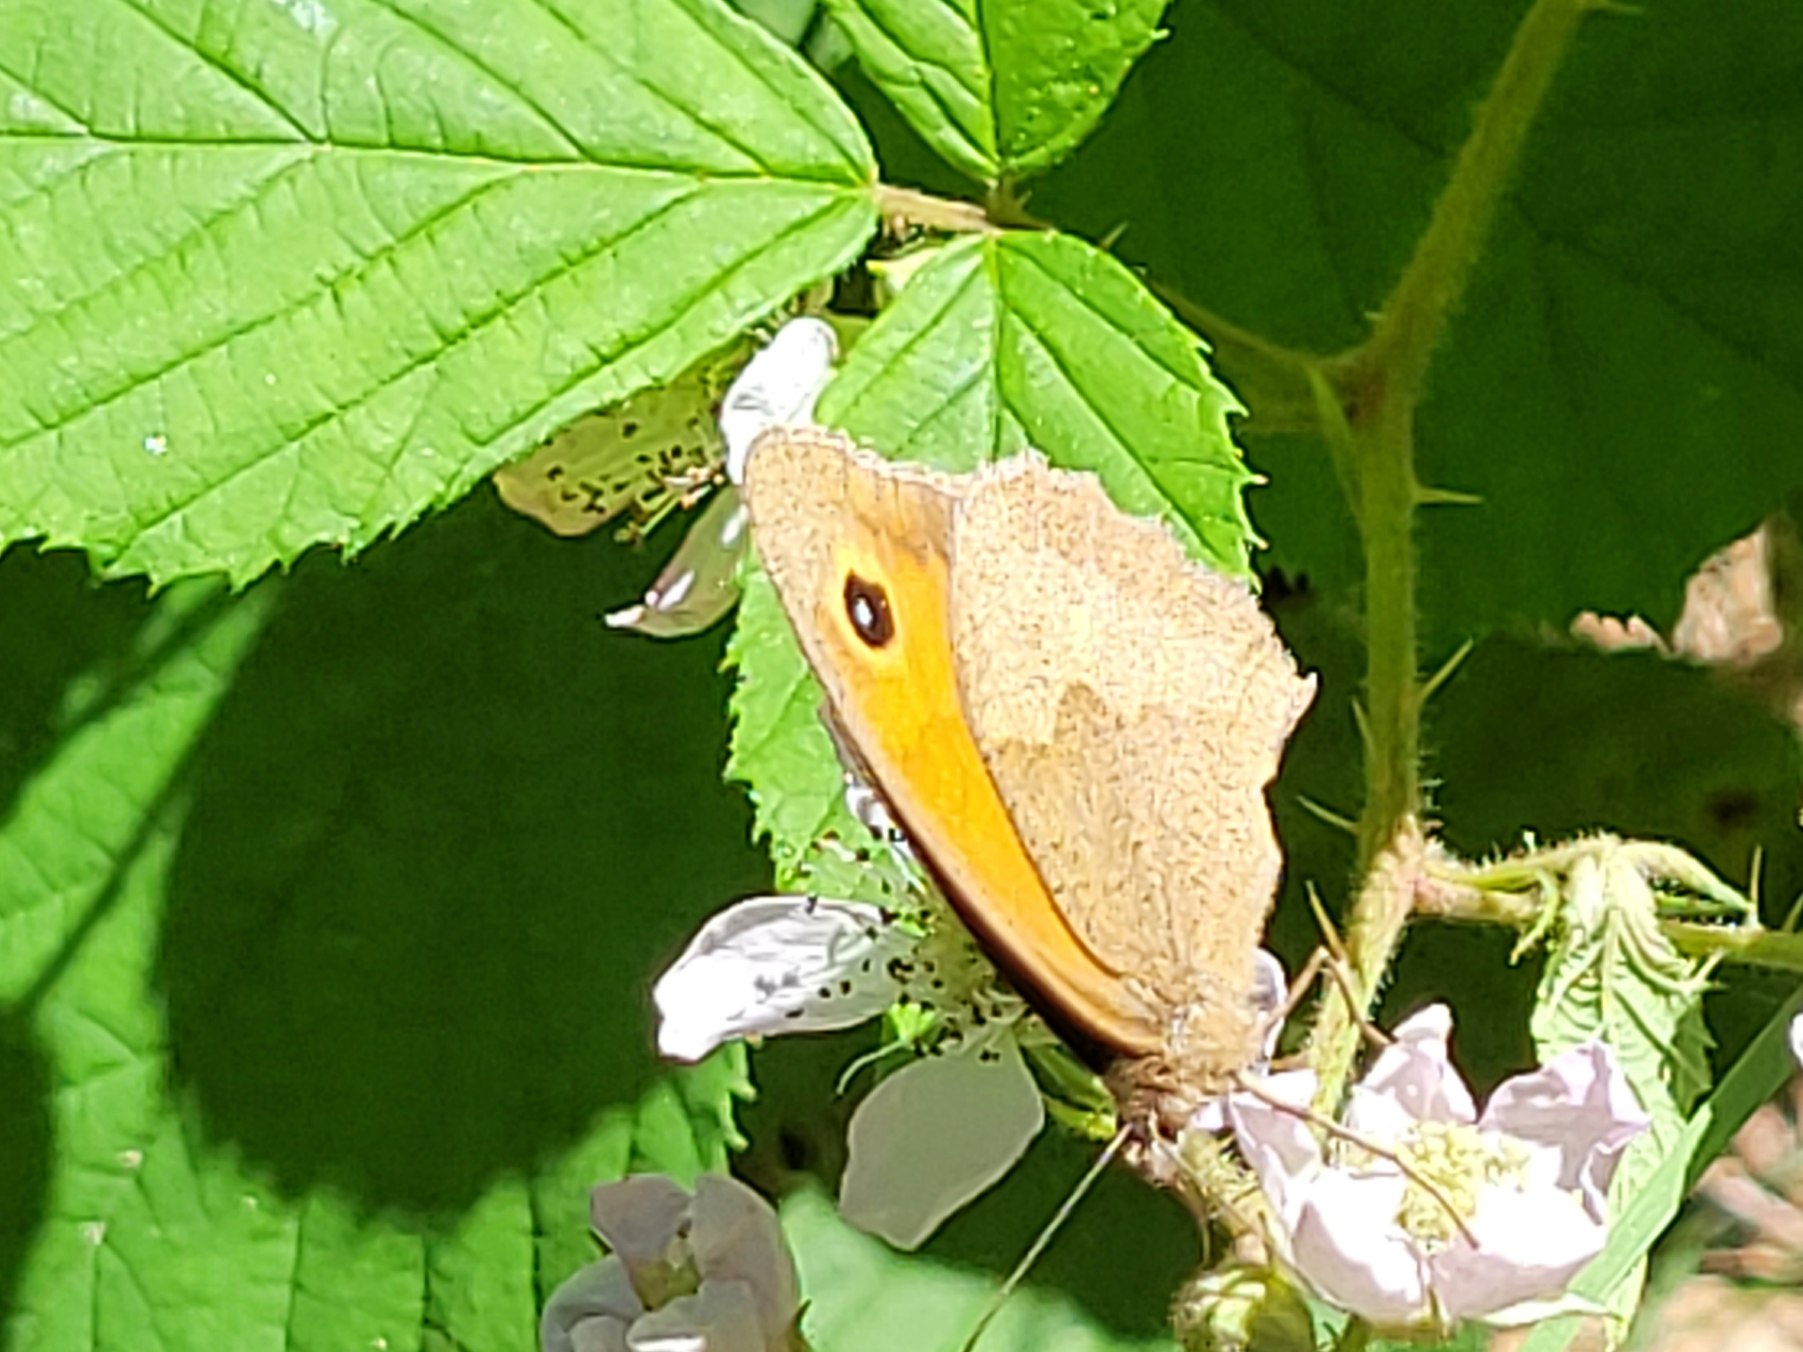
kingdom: Animalia
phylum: Arthropoda
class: Insecta
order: Lepidoptera
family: Nymphalidae
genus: Maniola
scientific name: Maniola jurtina
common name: Græsrandøje
